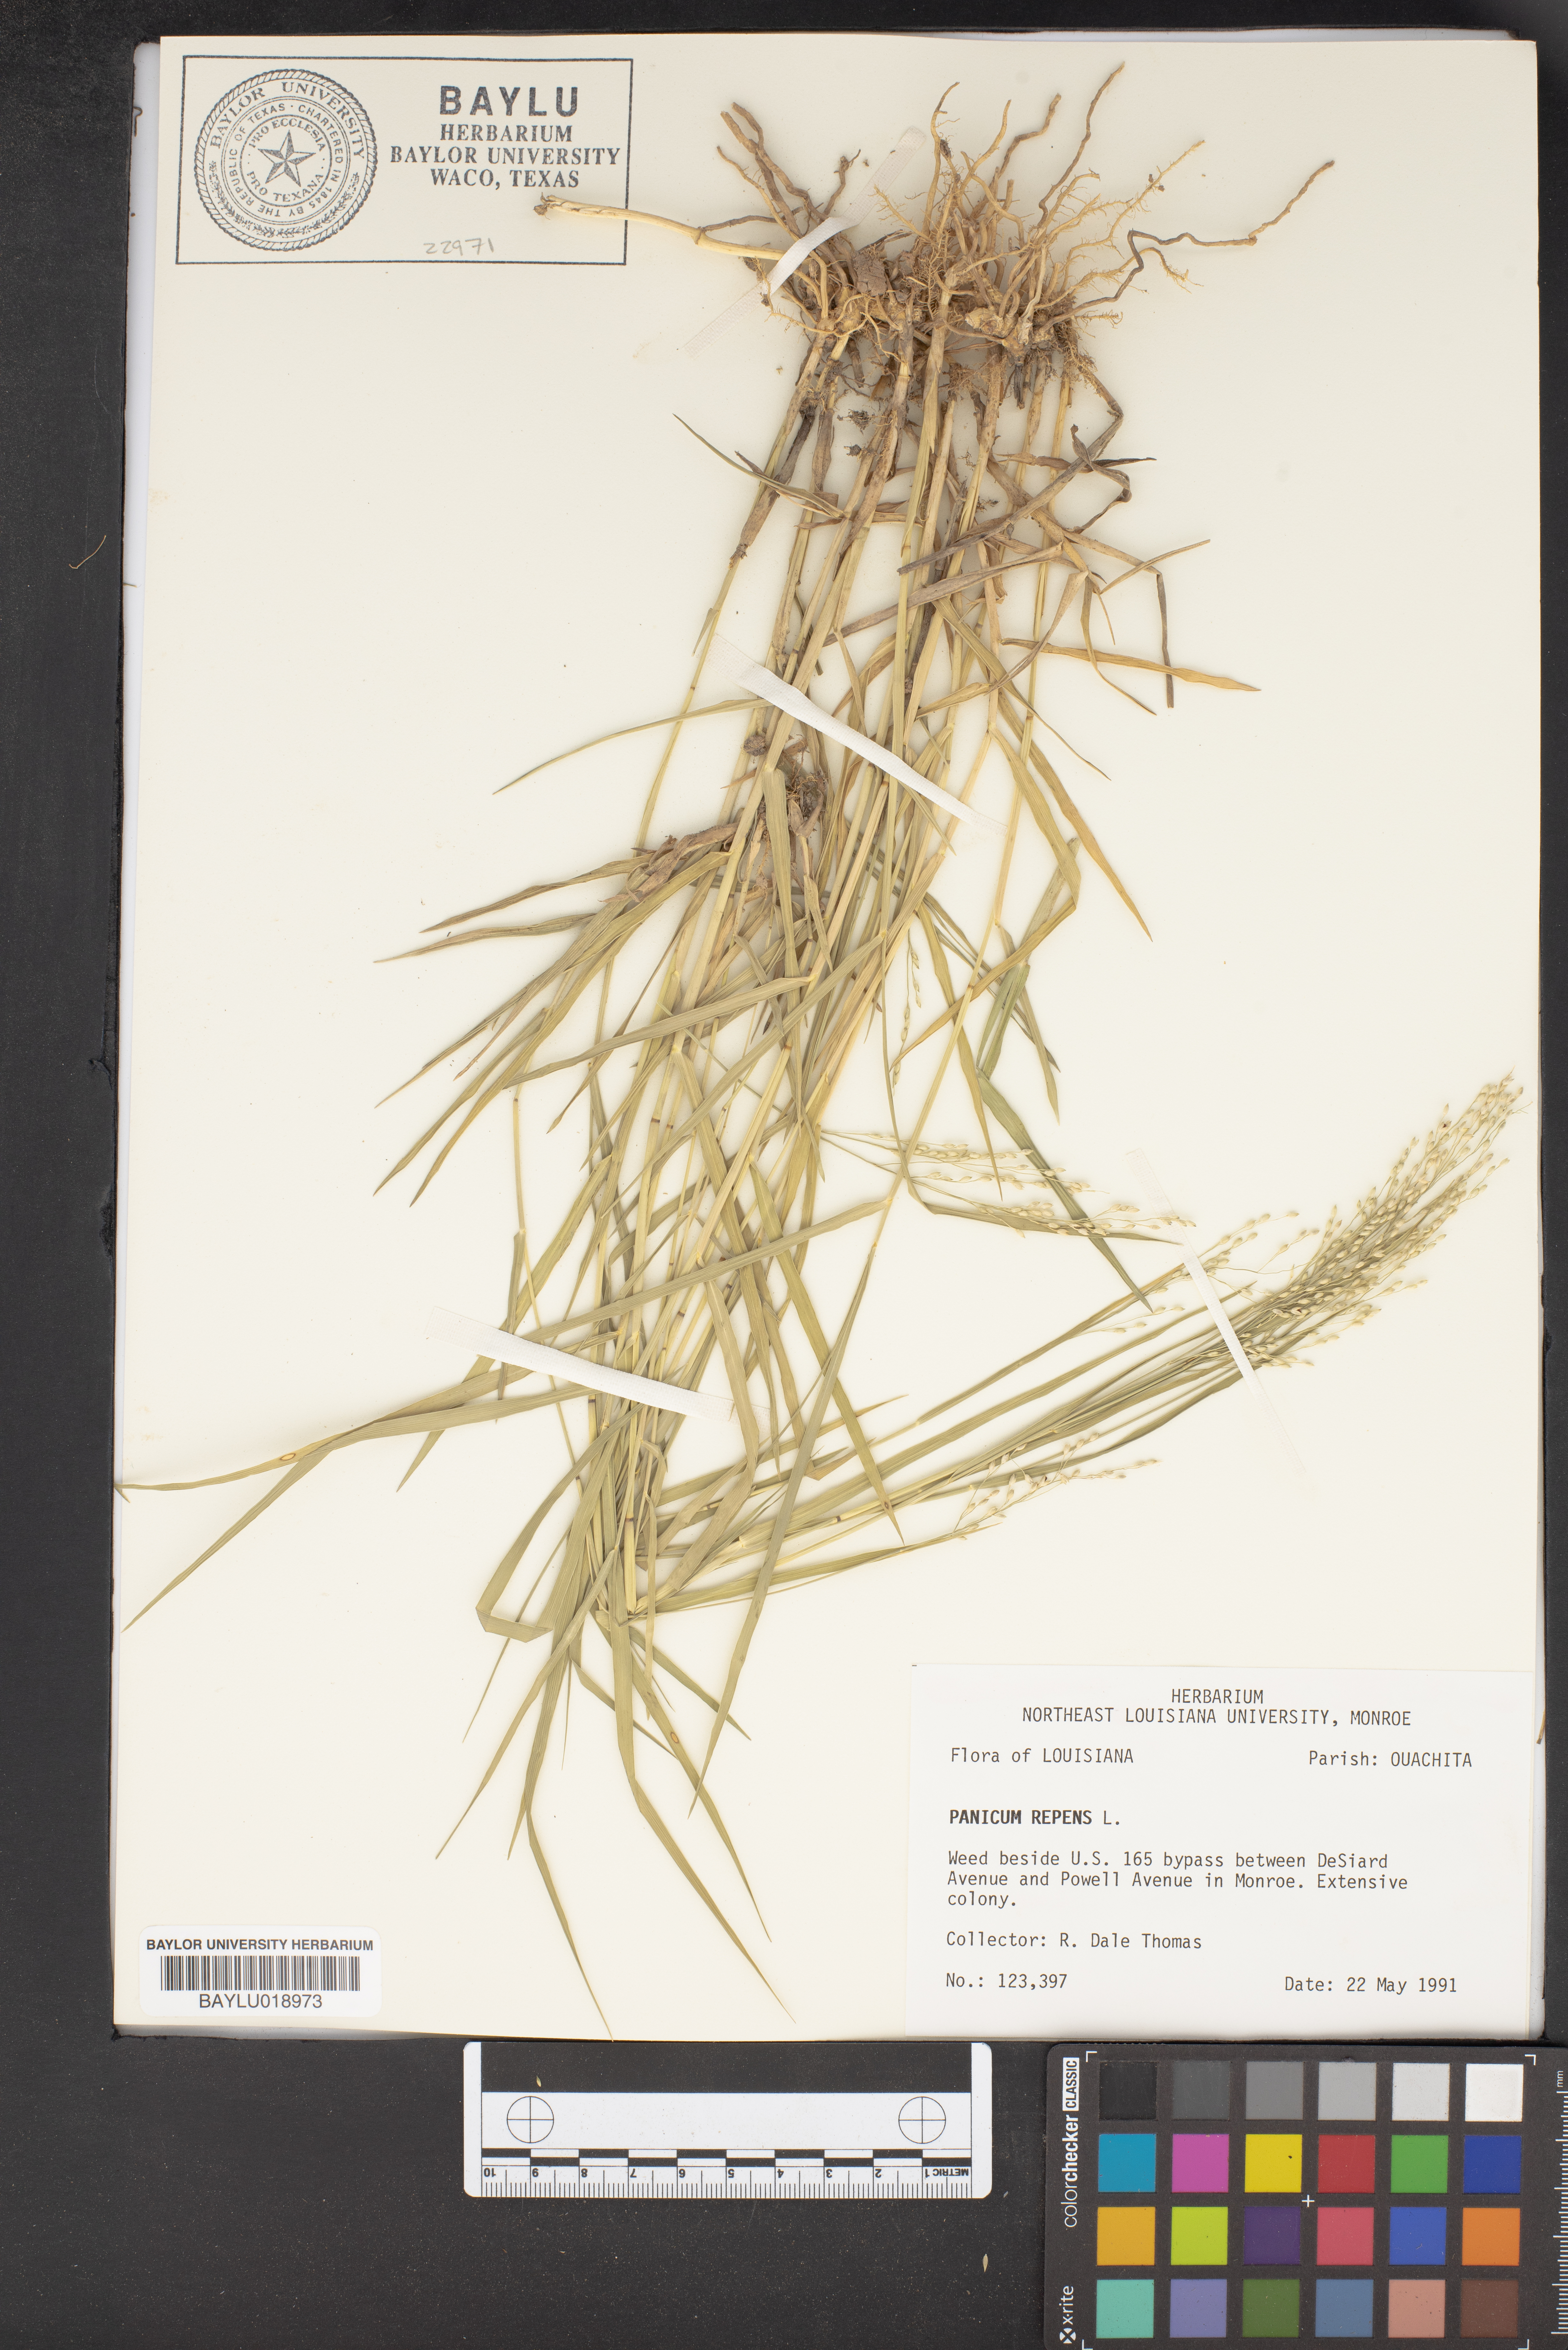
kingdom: Plantae
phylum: Tracheophyta
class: Liliopsida
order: Poales
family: Poaceae
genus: Panicum
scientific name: Panicum repens
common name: Torpedo grass
